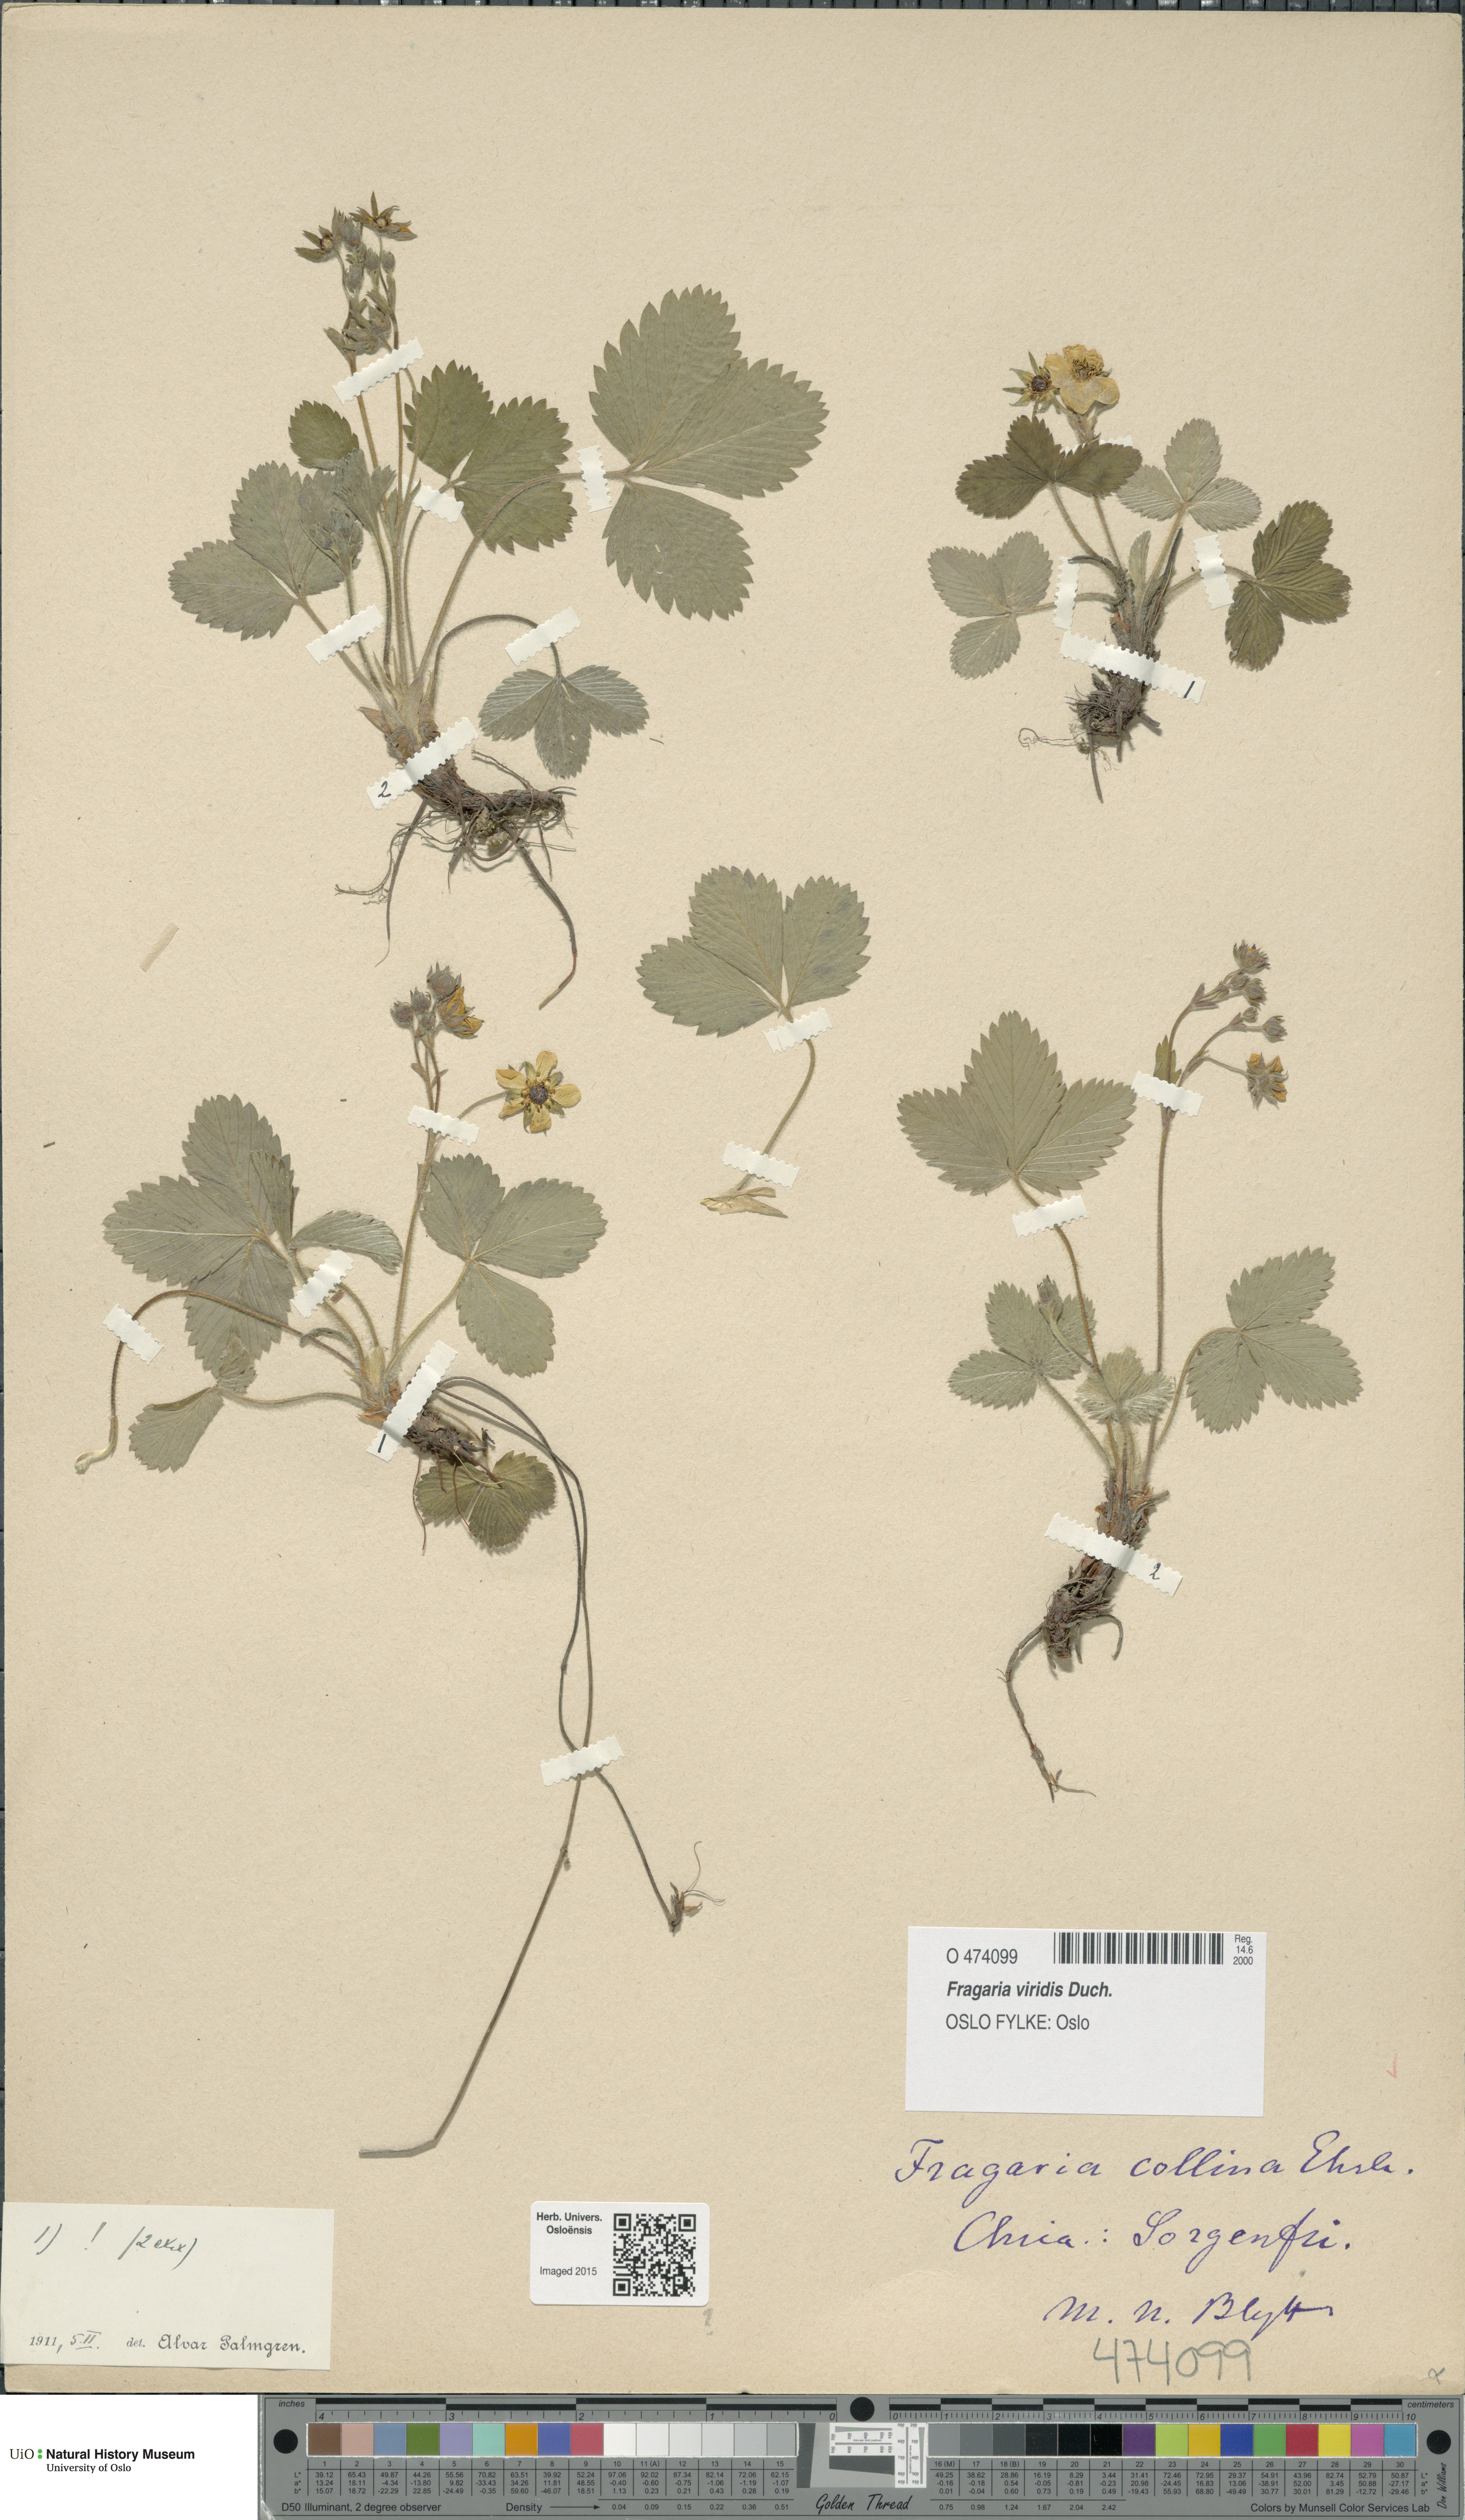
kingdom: Plantae
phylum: Tracheophyta
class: Magnoliopsida
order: Rosales
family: Rosaceae
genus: Fragaria
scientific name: Fragaria viridis
